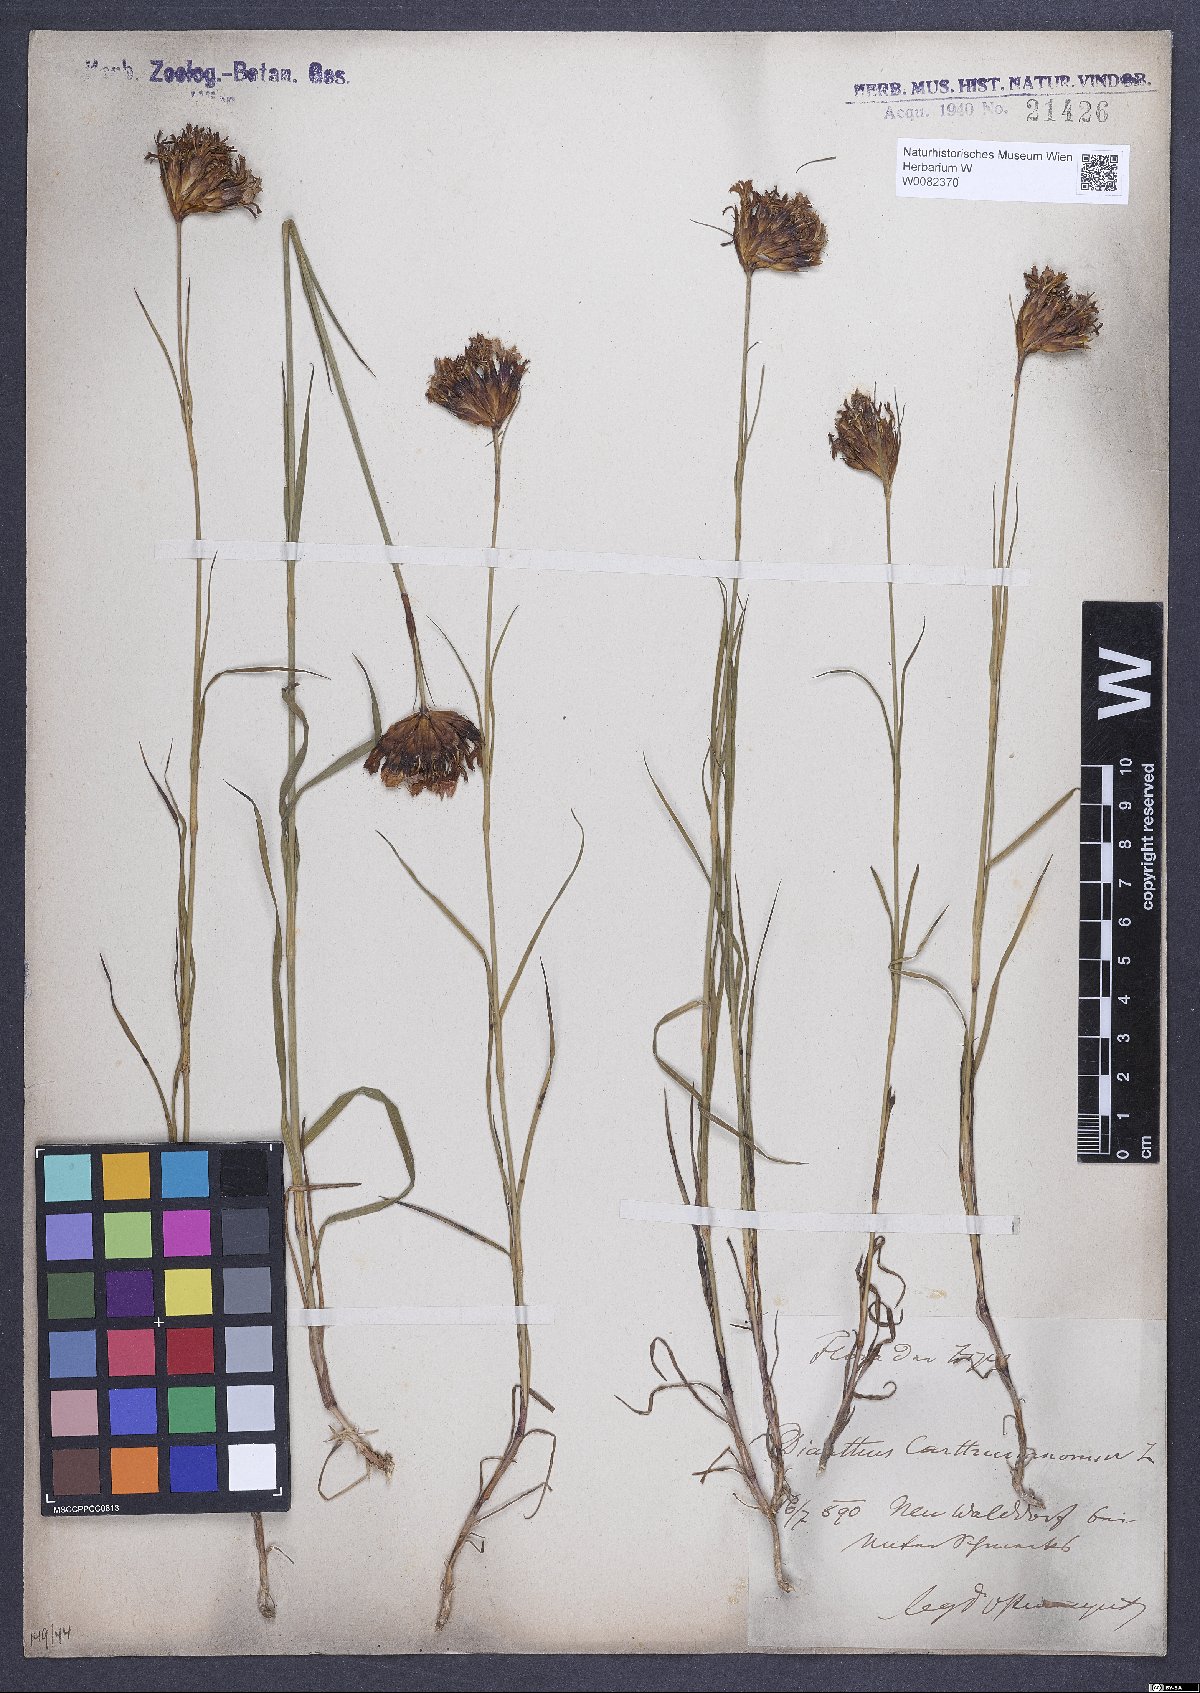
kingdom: Plantae
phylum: Tracheophyta
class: Magnoliopsida
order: Caryophyllales
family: Caryophyllaceae
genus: Dianthus
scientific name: Dianthus carthusianorum
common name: Carthusian pink
